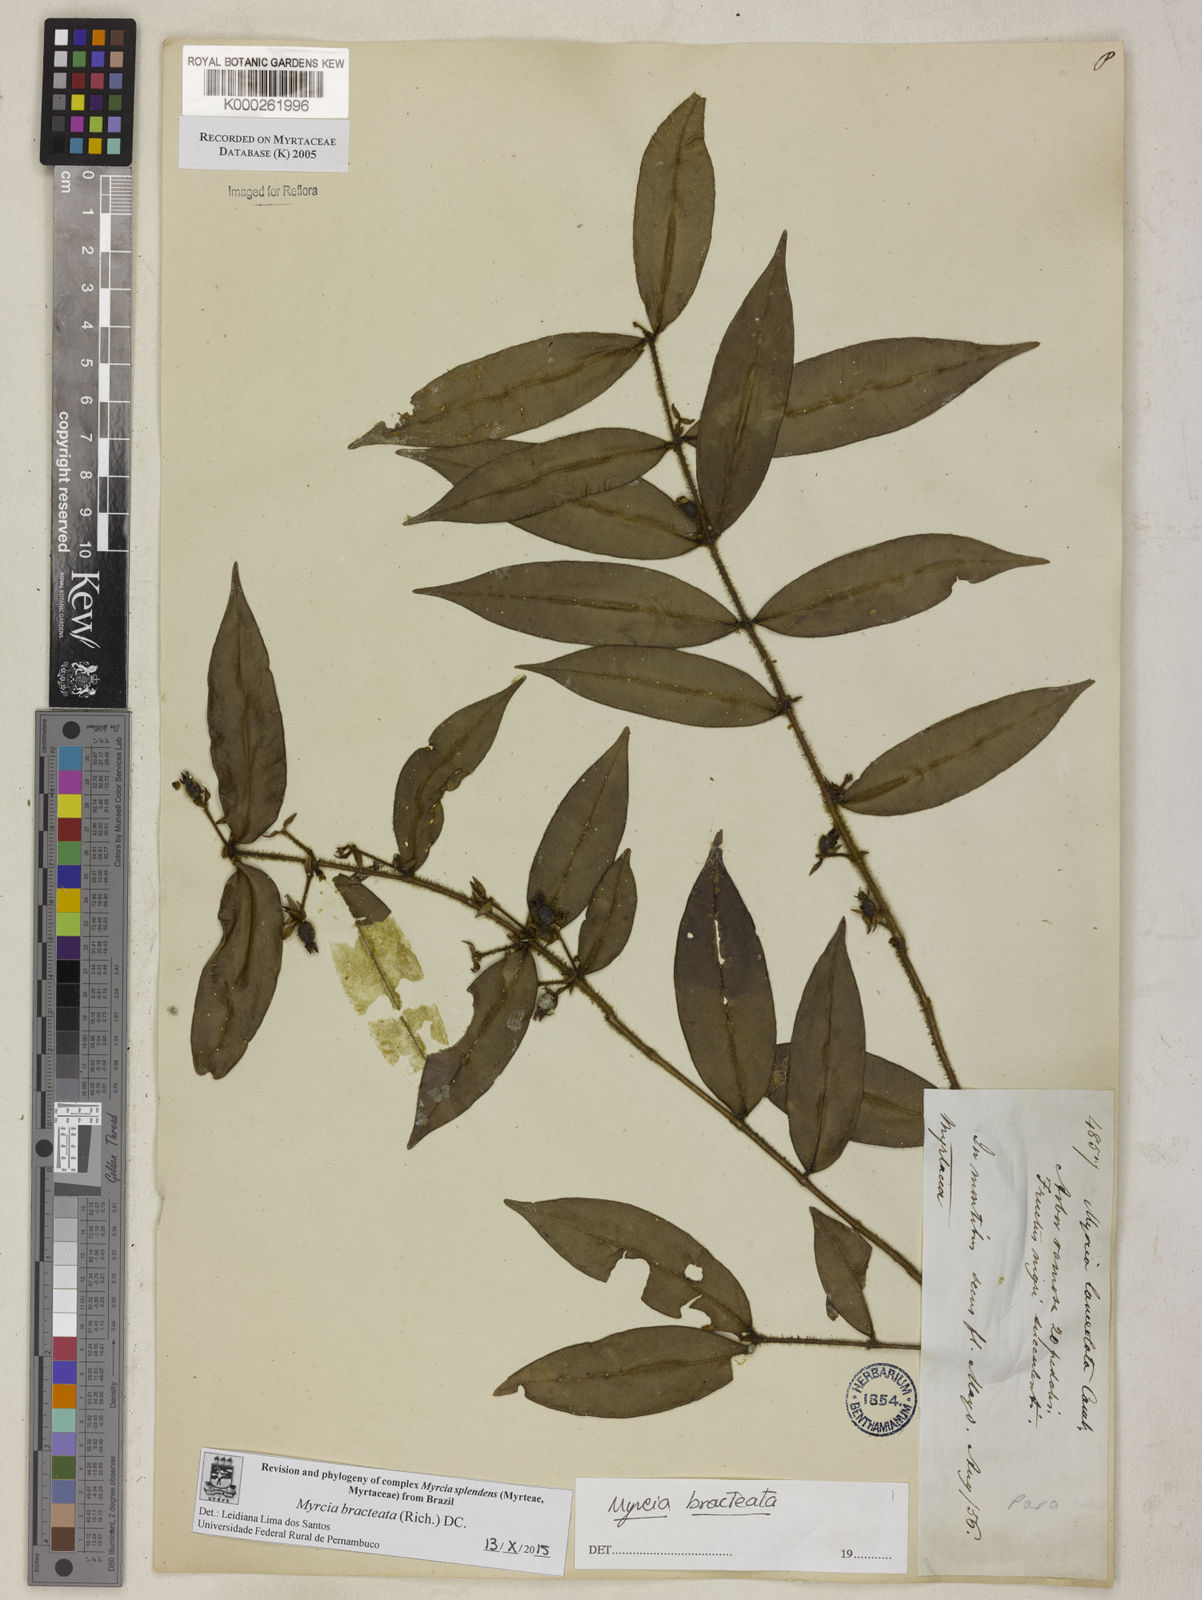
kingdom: Plantae
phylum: Tracheophyta
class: Magnoliopsida
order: Myrtales
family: Myrtaceae
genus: Myrcia
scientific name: Myrcia bracteata
